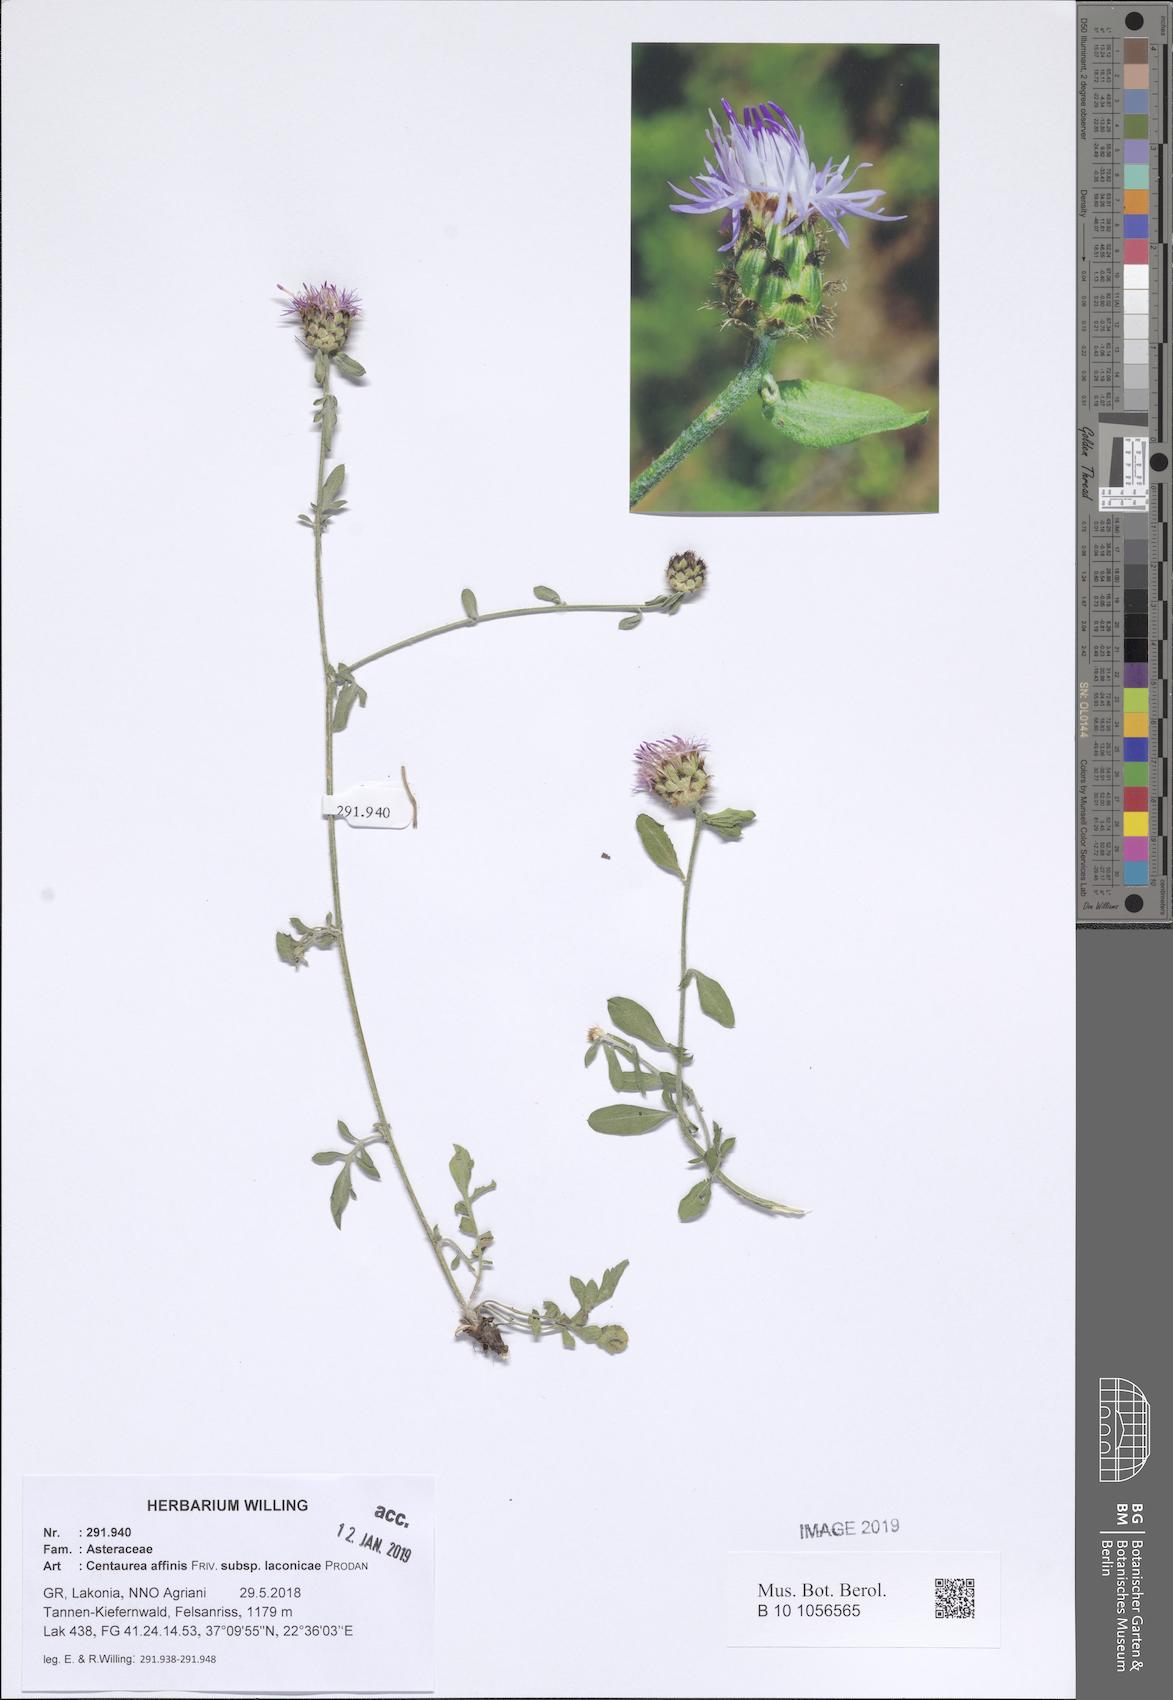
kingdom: Plantae
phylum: Tracheophyta
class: Magnoliopsida
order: Asterales
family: Asteraceae
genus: Centaurea
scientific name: Centaurea affinis
